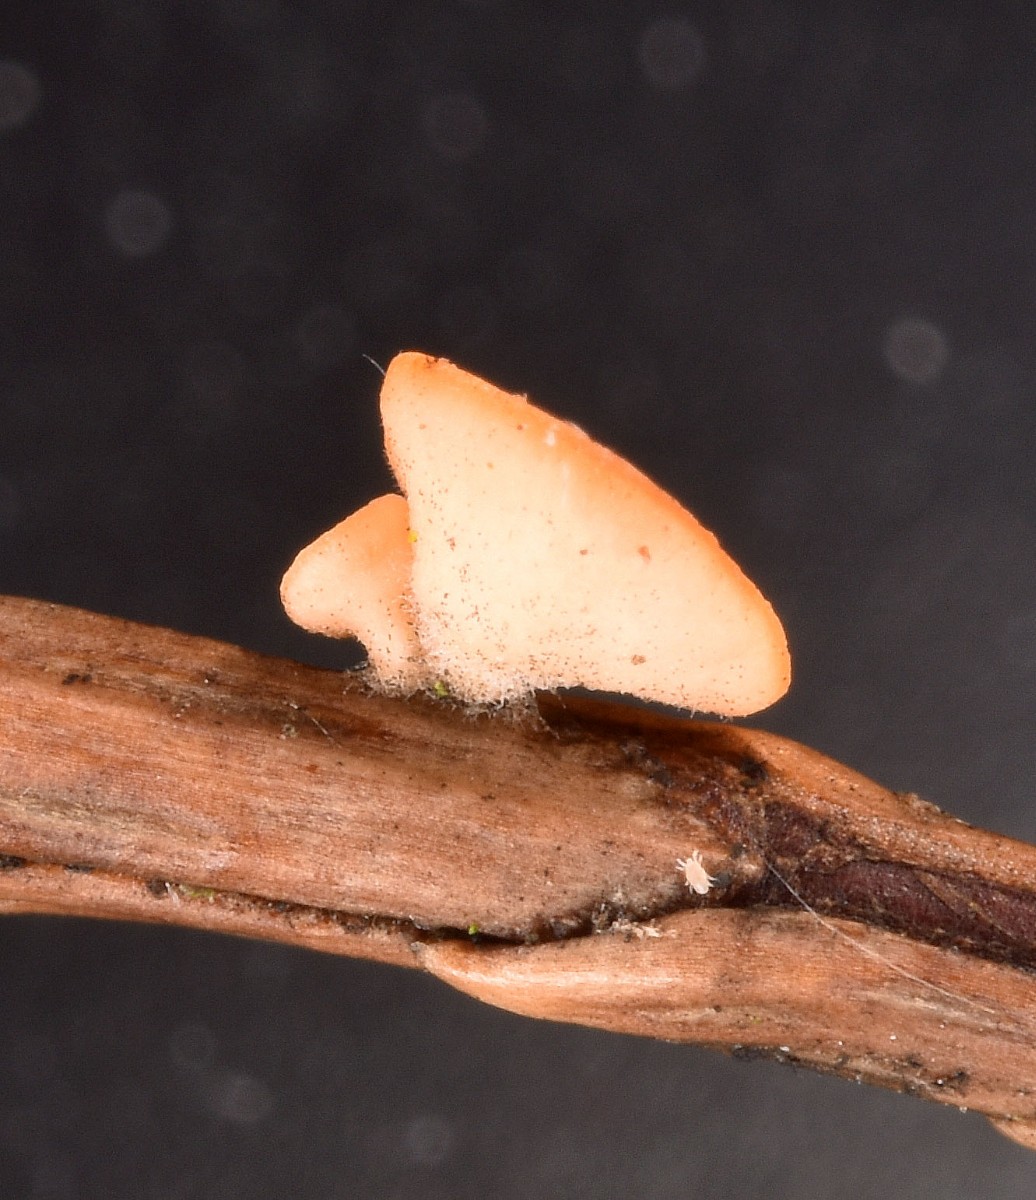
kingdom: Fungi
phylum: Ascomycota
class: Pezizomycetes
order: Pezizales
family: Sarcoscyphaceae
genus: Pithya
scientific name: Pithya cupressina
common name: lille dukatbæger
